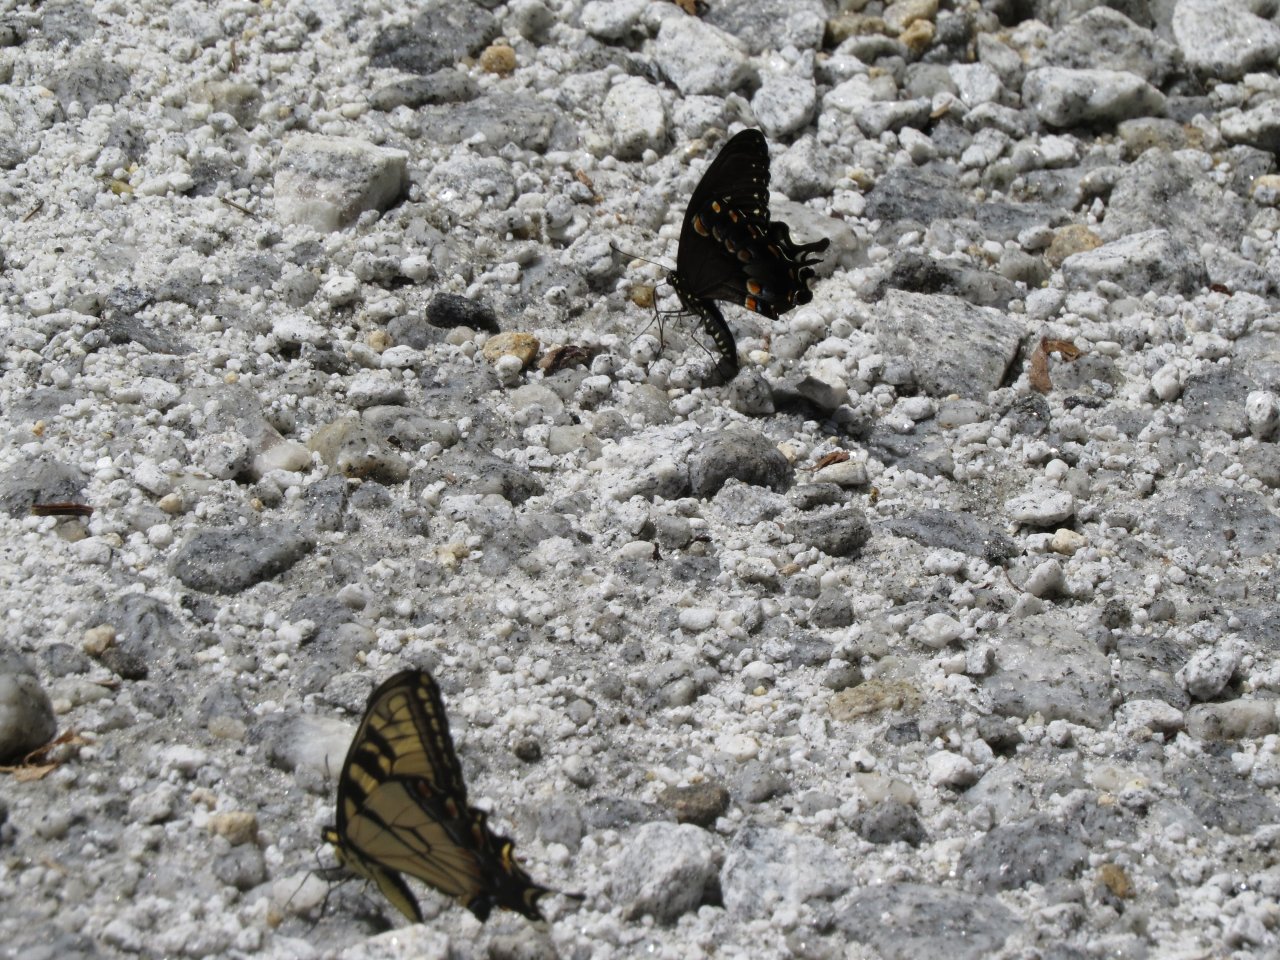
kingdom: Animalia
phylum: Arthropoda
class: Insecta
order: Lepidoptera
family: Papilionidae
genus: Pterourus
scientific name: Pterourus glaucus
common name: Eastern Tiger Swallowtail
